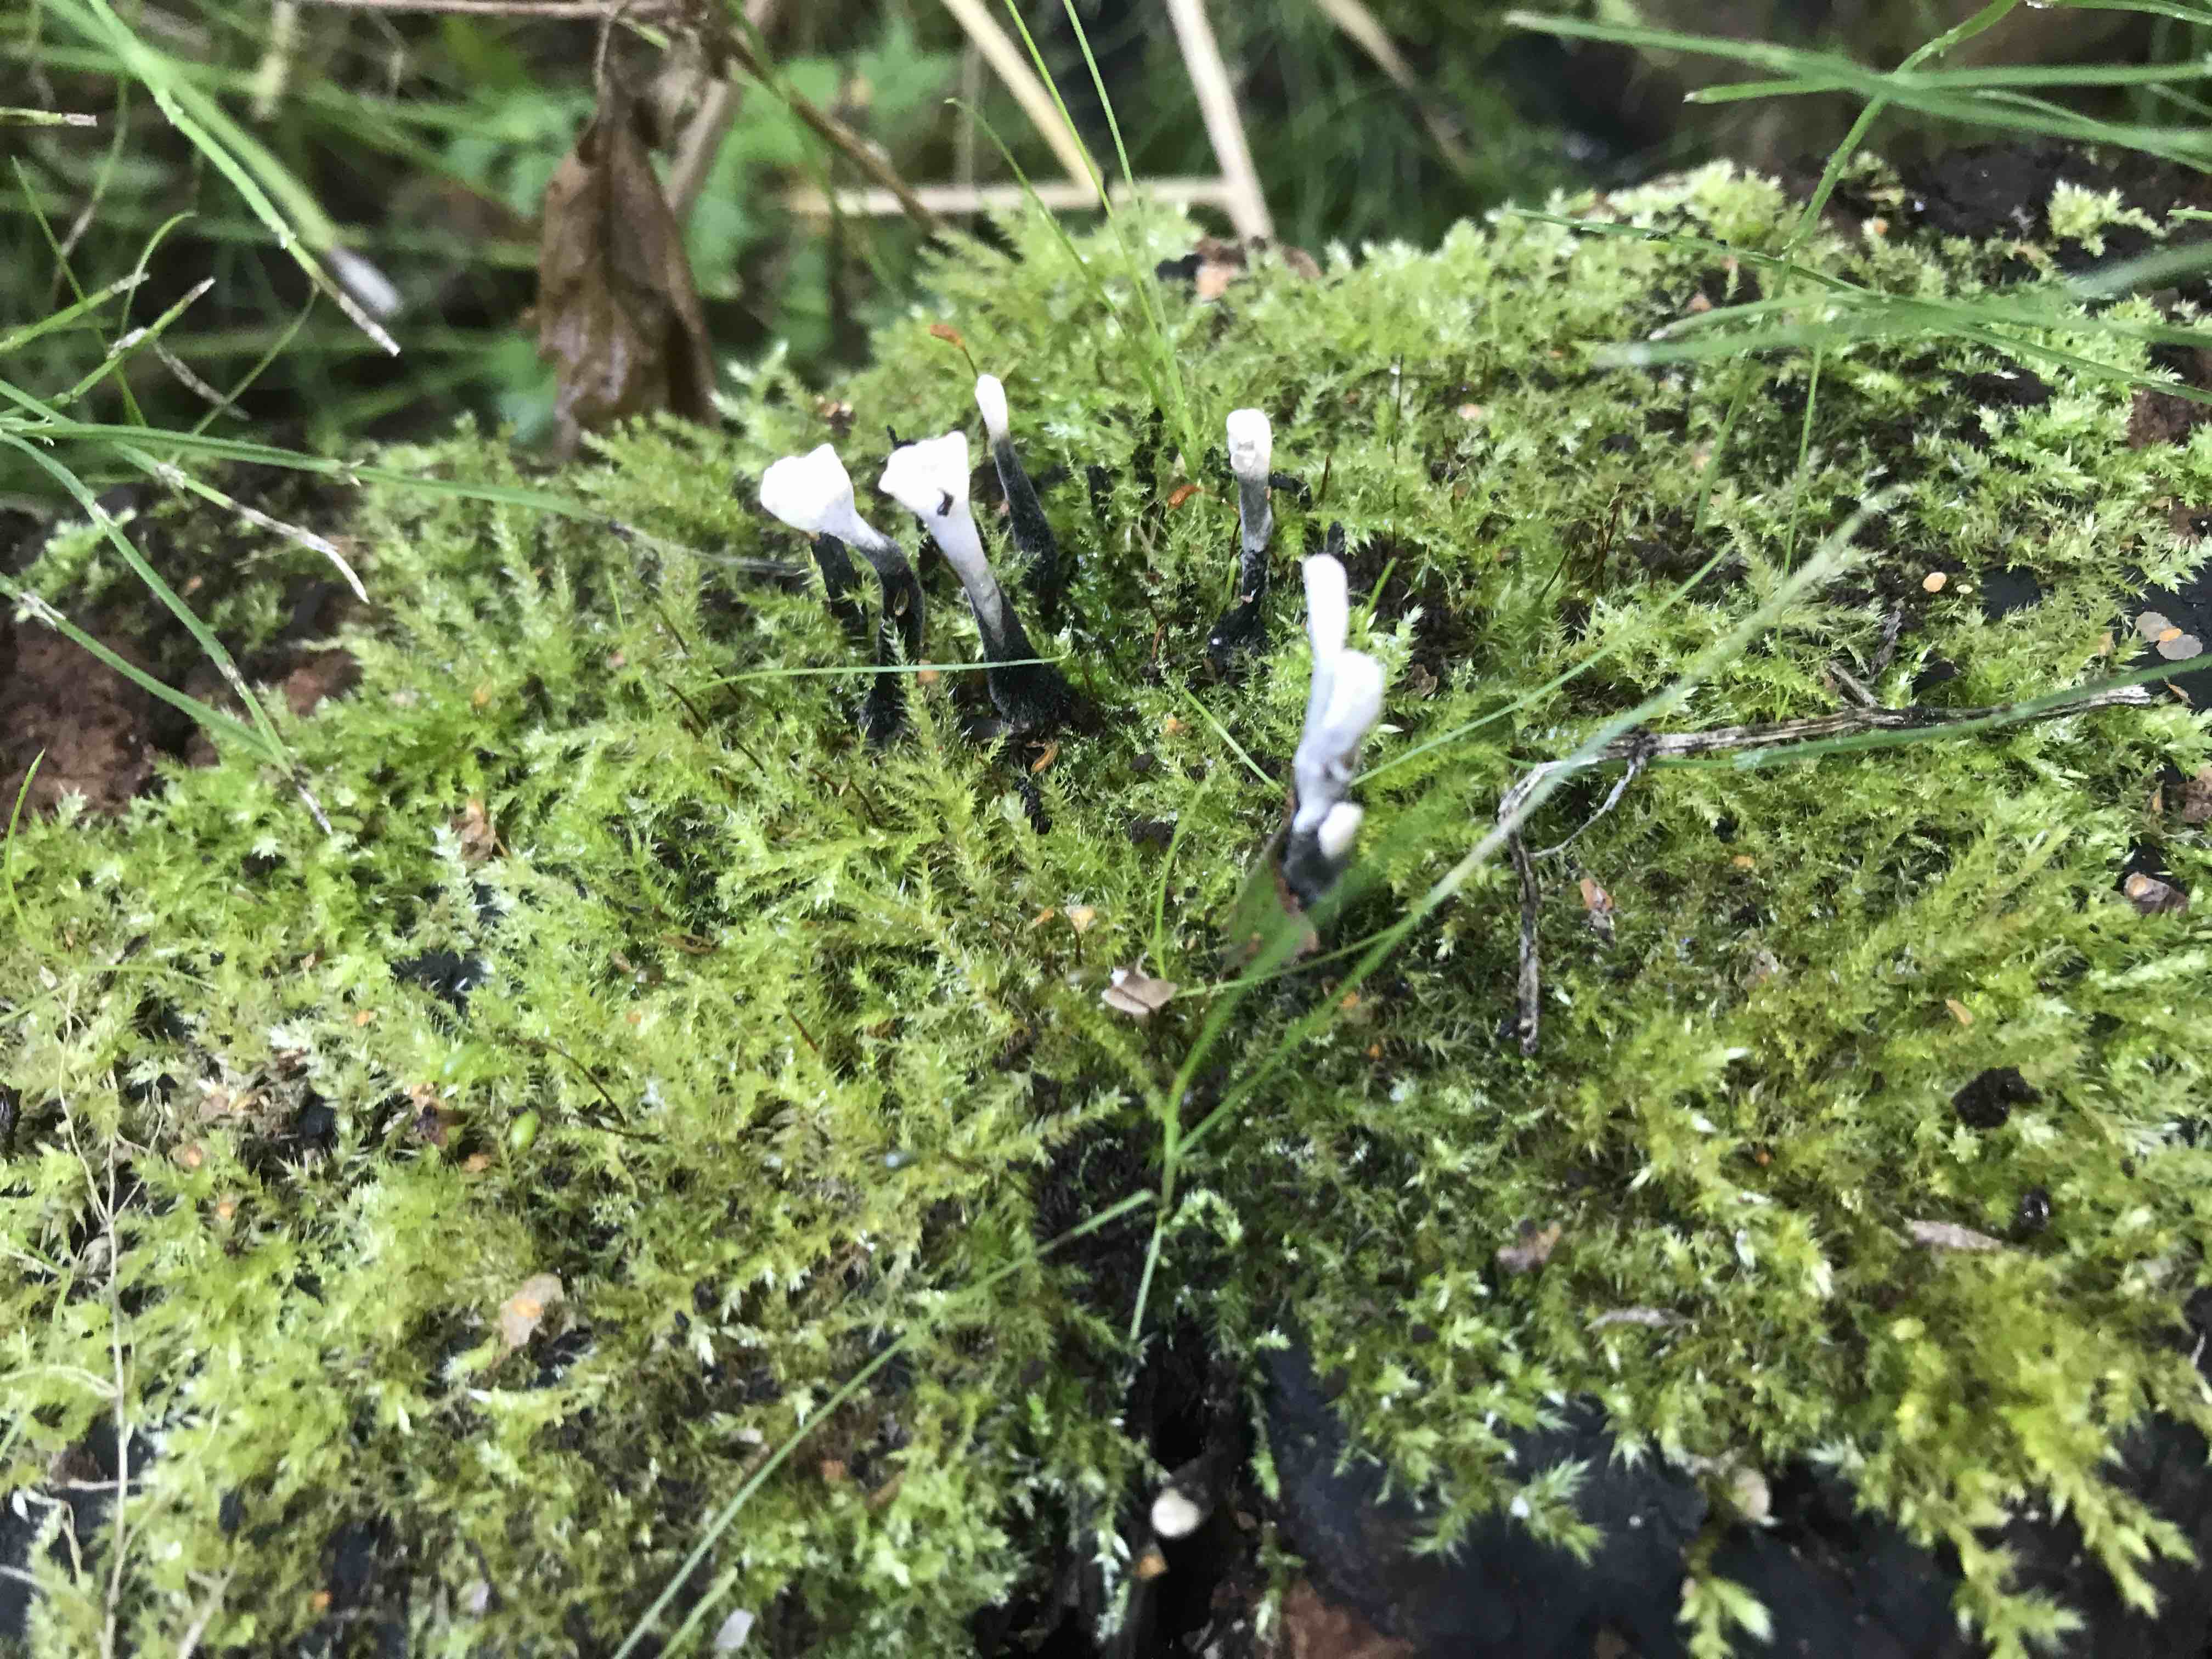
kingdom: Fungi
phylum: Ascomycota
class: Sordariomycetes
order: Xylariales
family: Xylariaceae
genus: Xylaria
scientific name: Xylaria hypoxylon
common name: grenet stødsvamp
